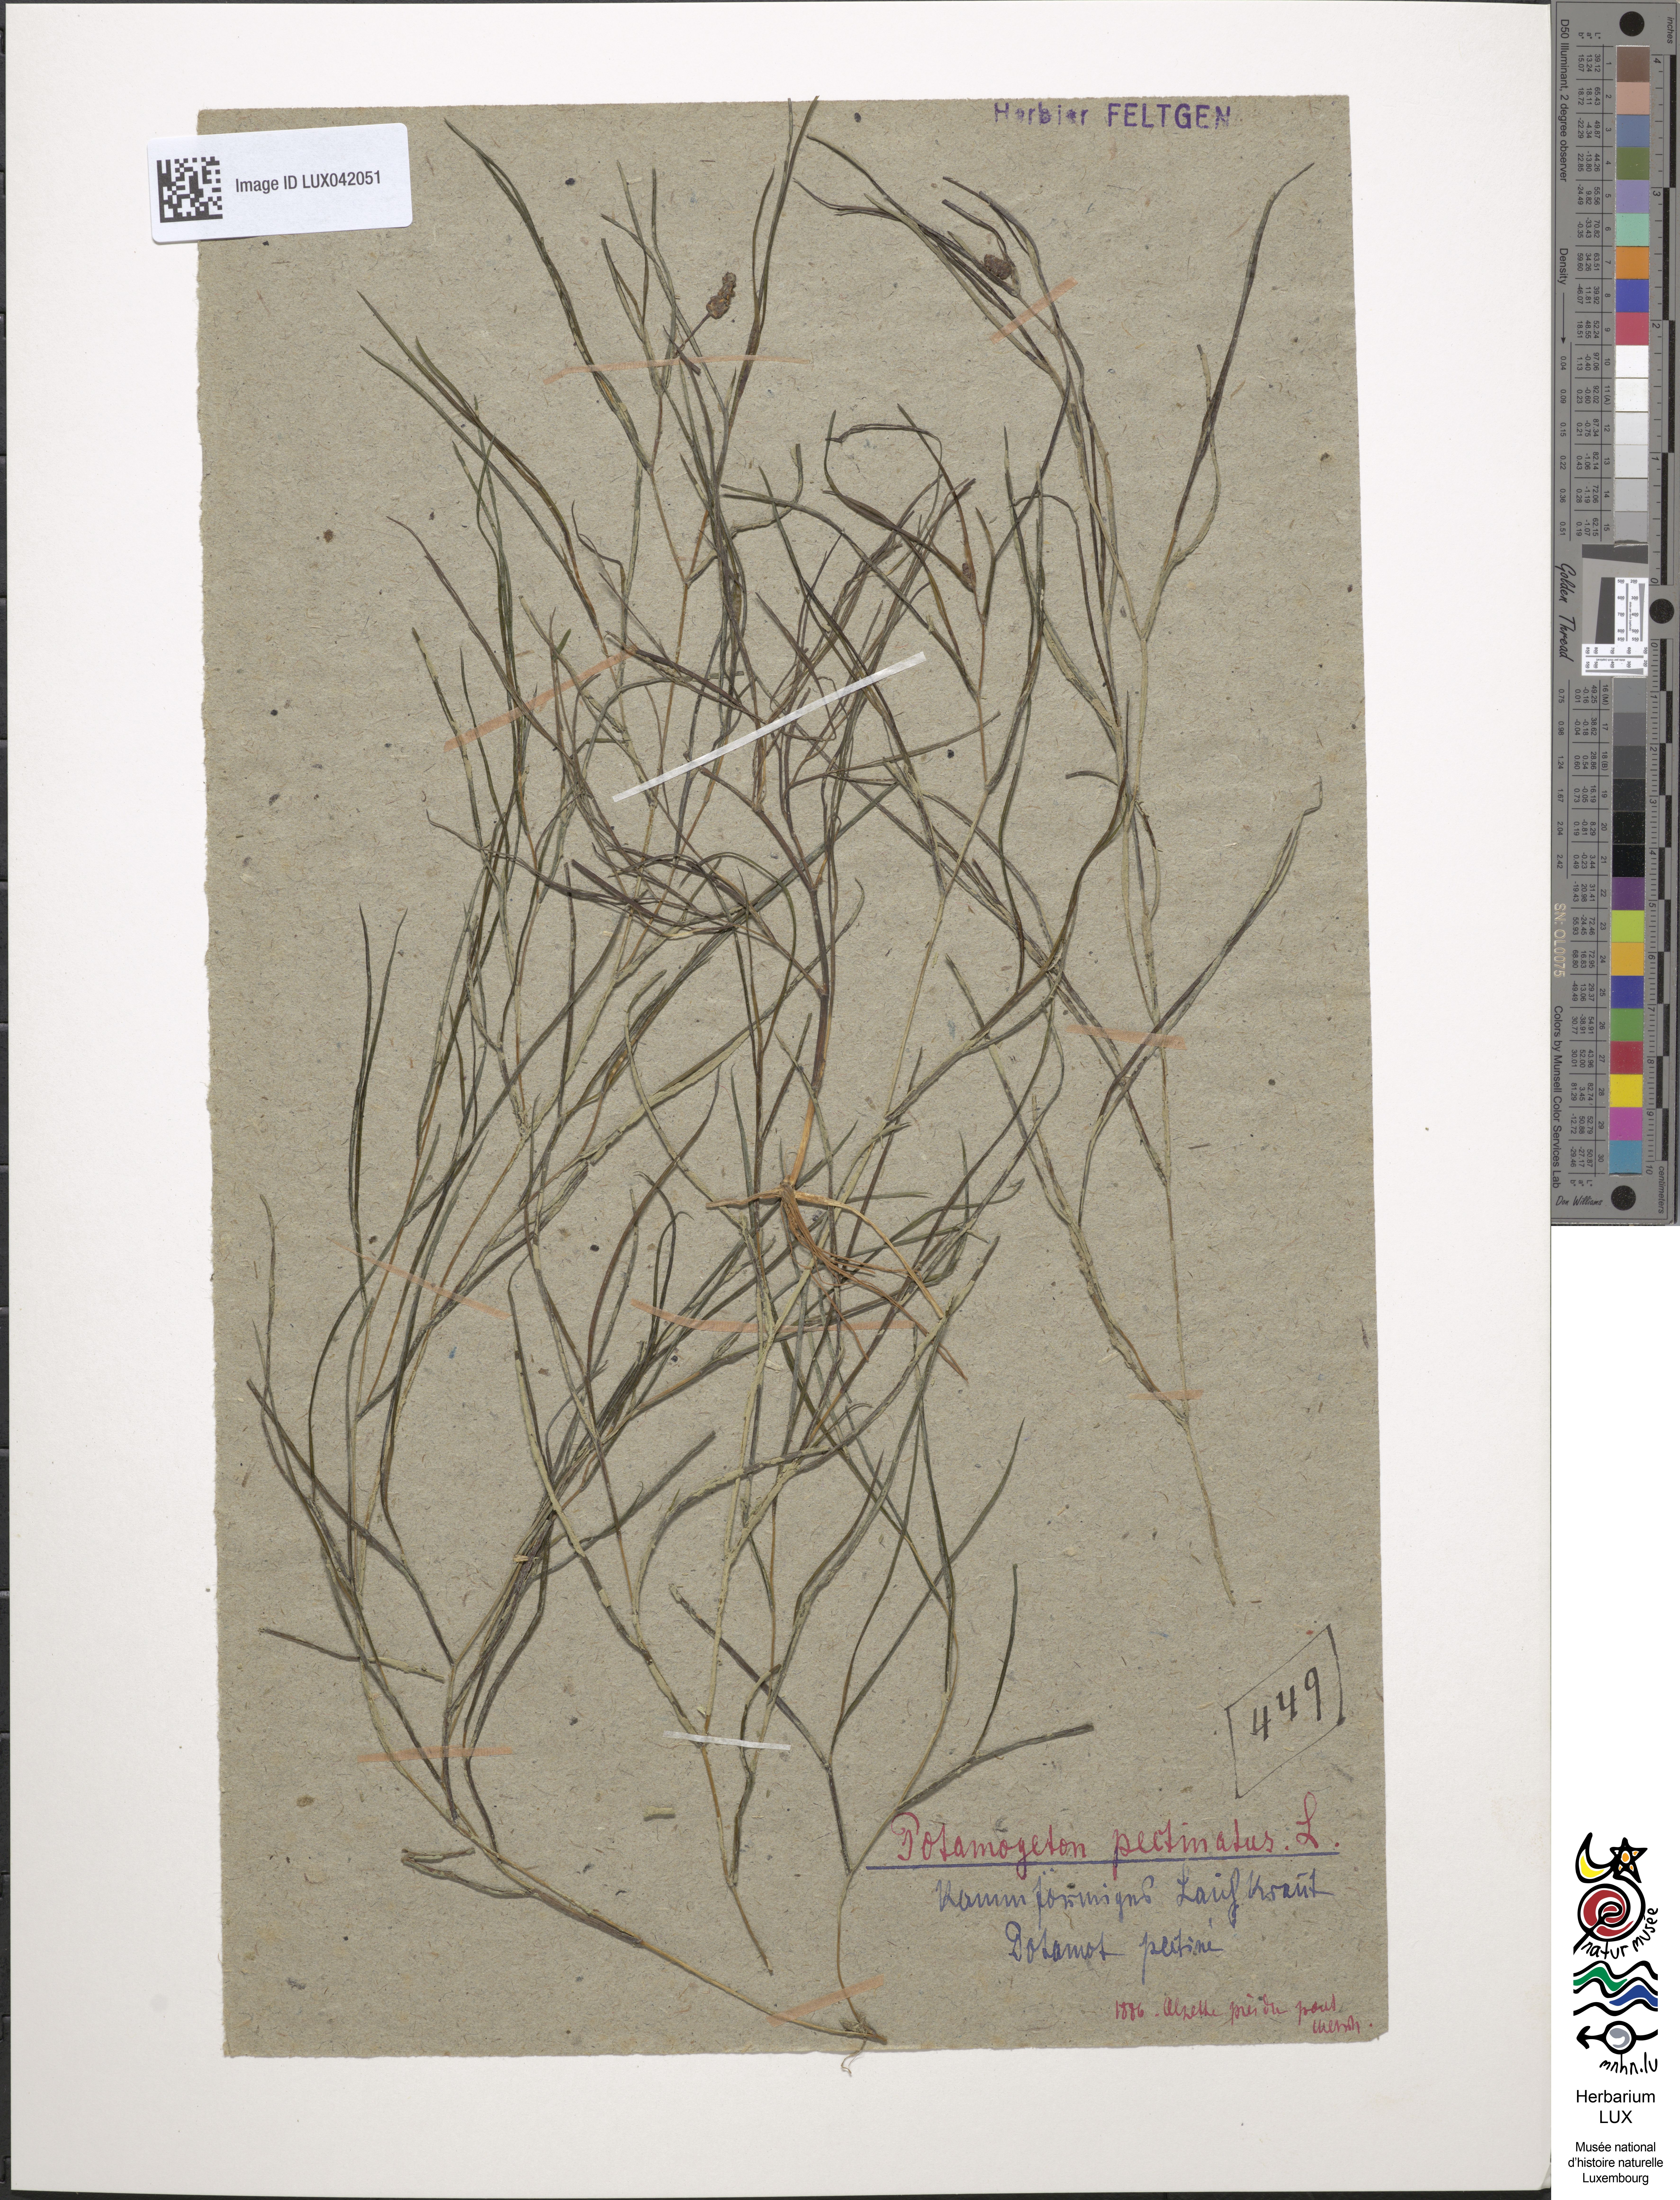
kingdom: Plantae
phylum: Tracheophyta
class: Liliopsida
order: Alismatales
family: Potamogetonaceae
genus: Stuckenia
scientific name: Stuckenia pectinata
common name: Sago pondweed
